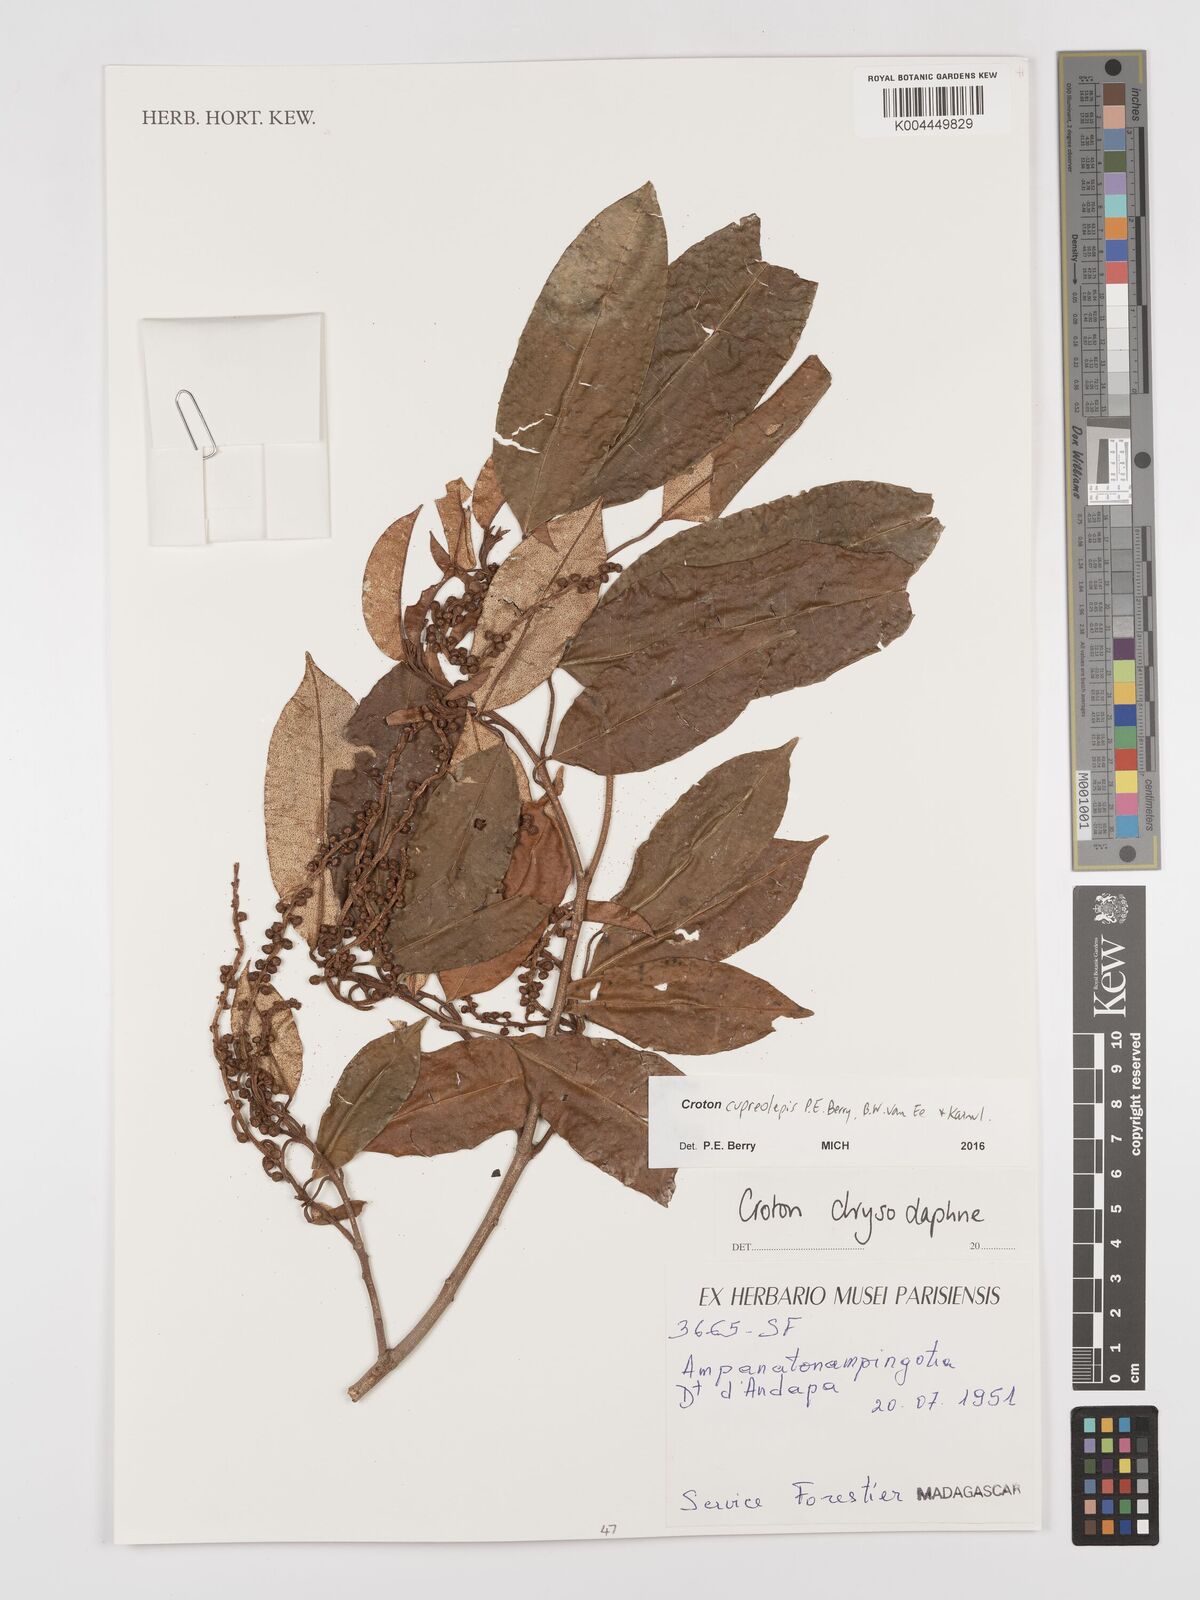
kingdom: Plantae
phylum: Tracheophyta
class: Magnoliopsida
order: Malpighiales
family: Euphorbiaceae
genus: Croton
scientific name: Croton cupreolepis
